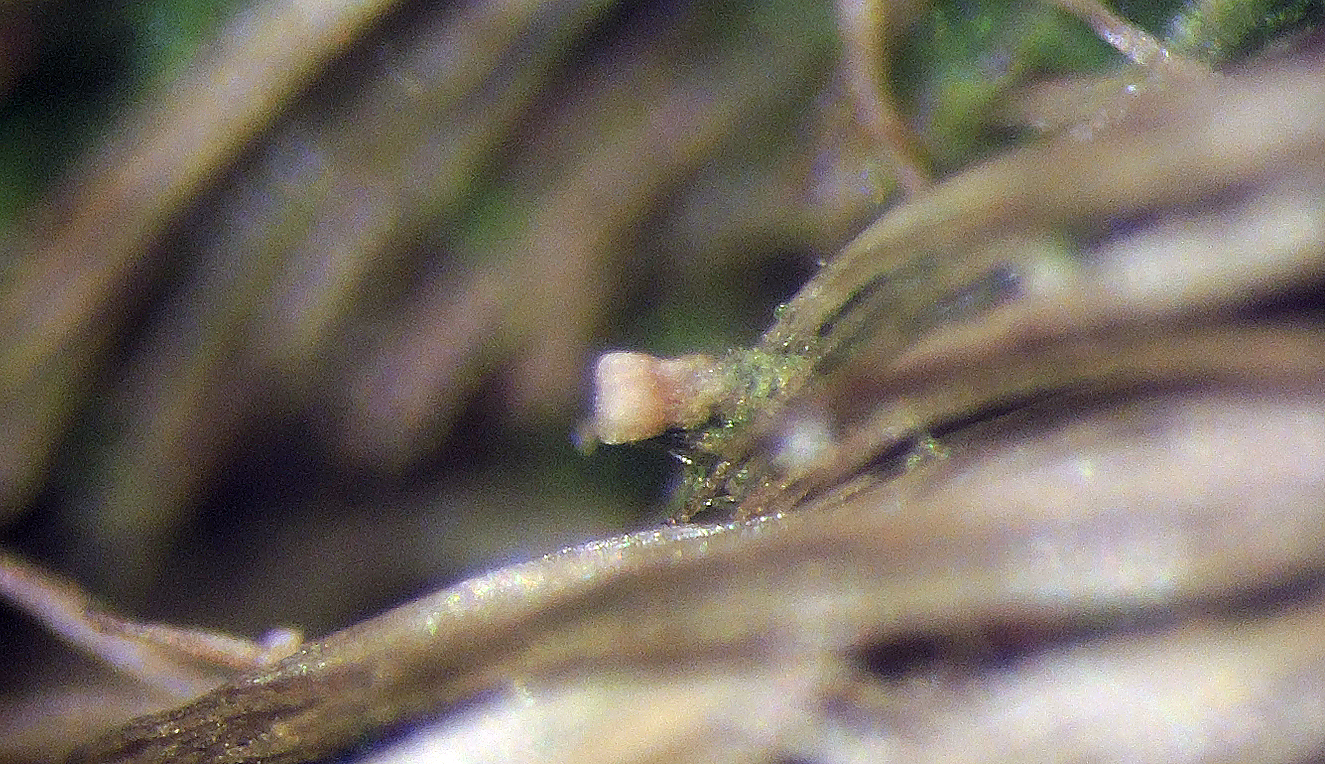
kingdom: Fungi
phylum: Ascomycota
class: Leotiomycetes
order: Helotiales
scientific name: Helotiales
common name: stilkskiveordenen
